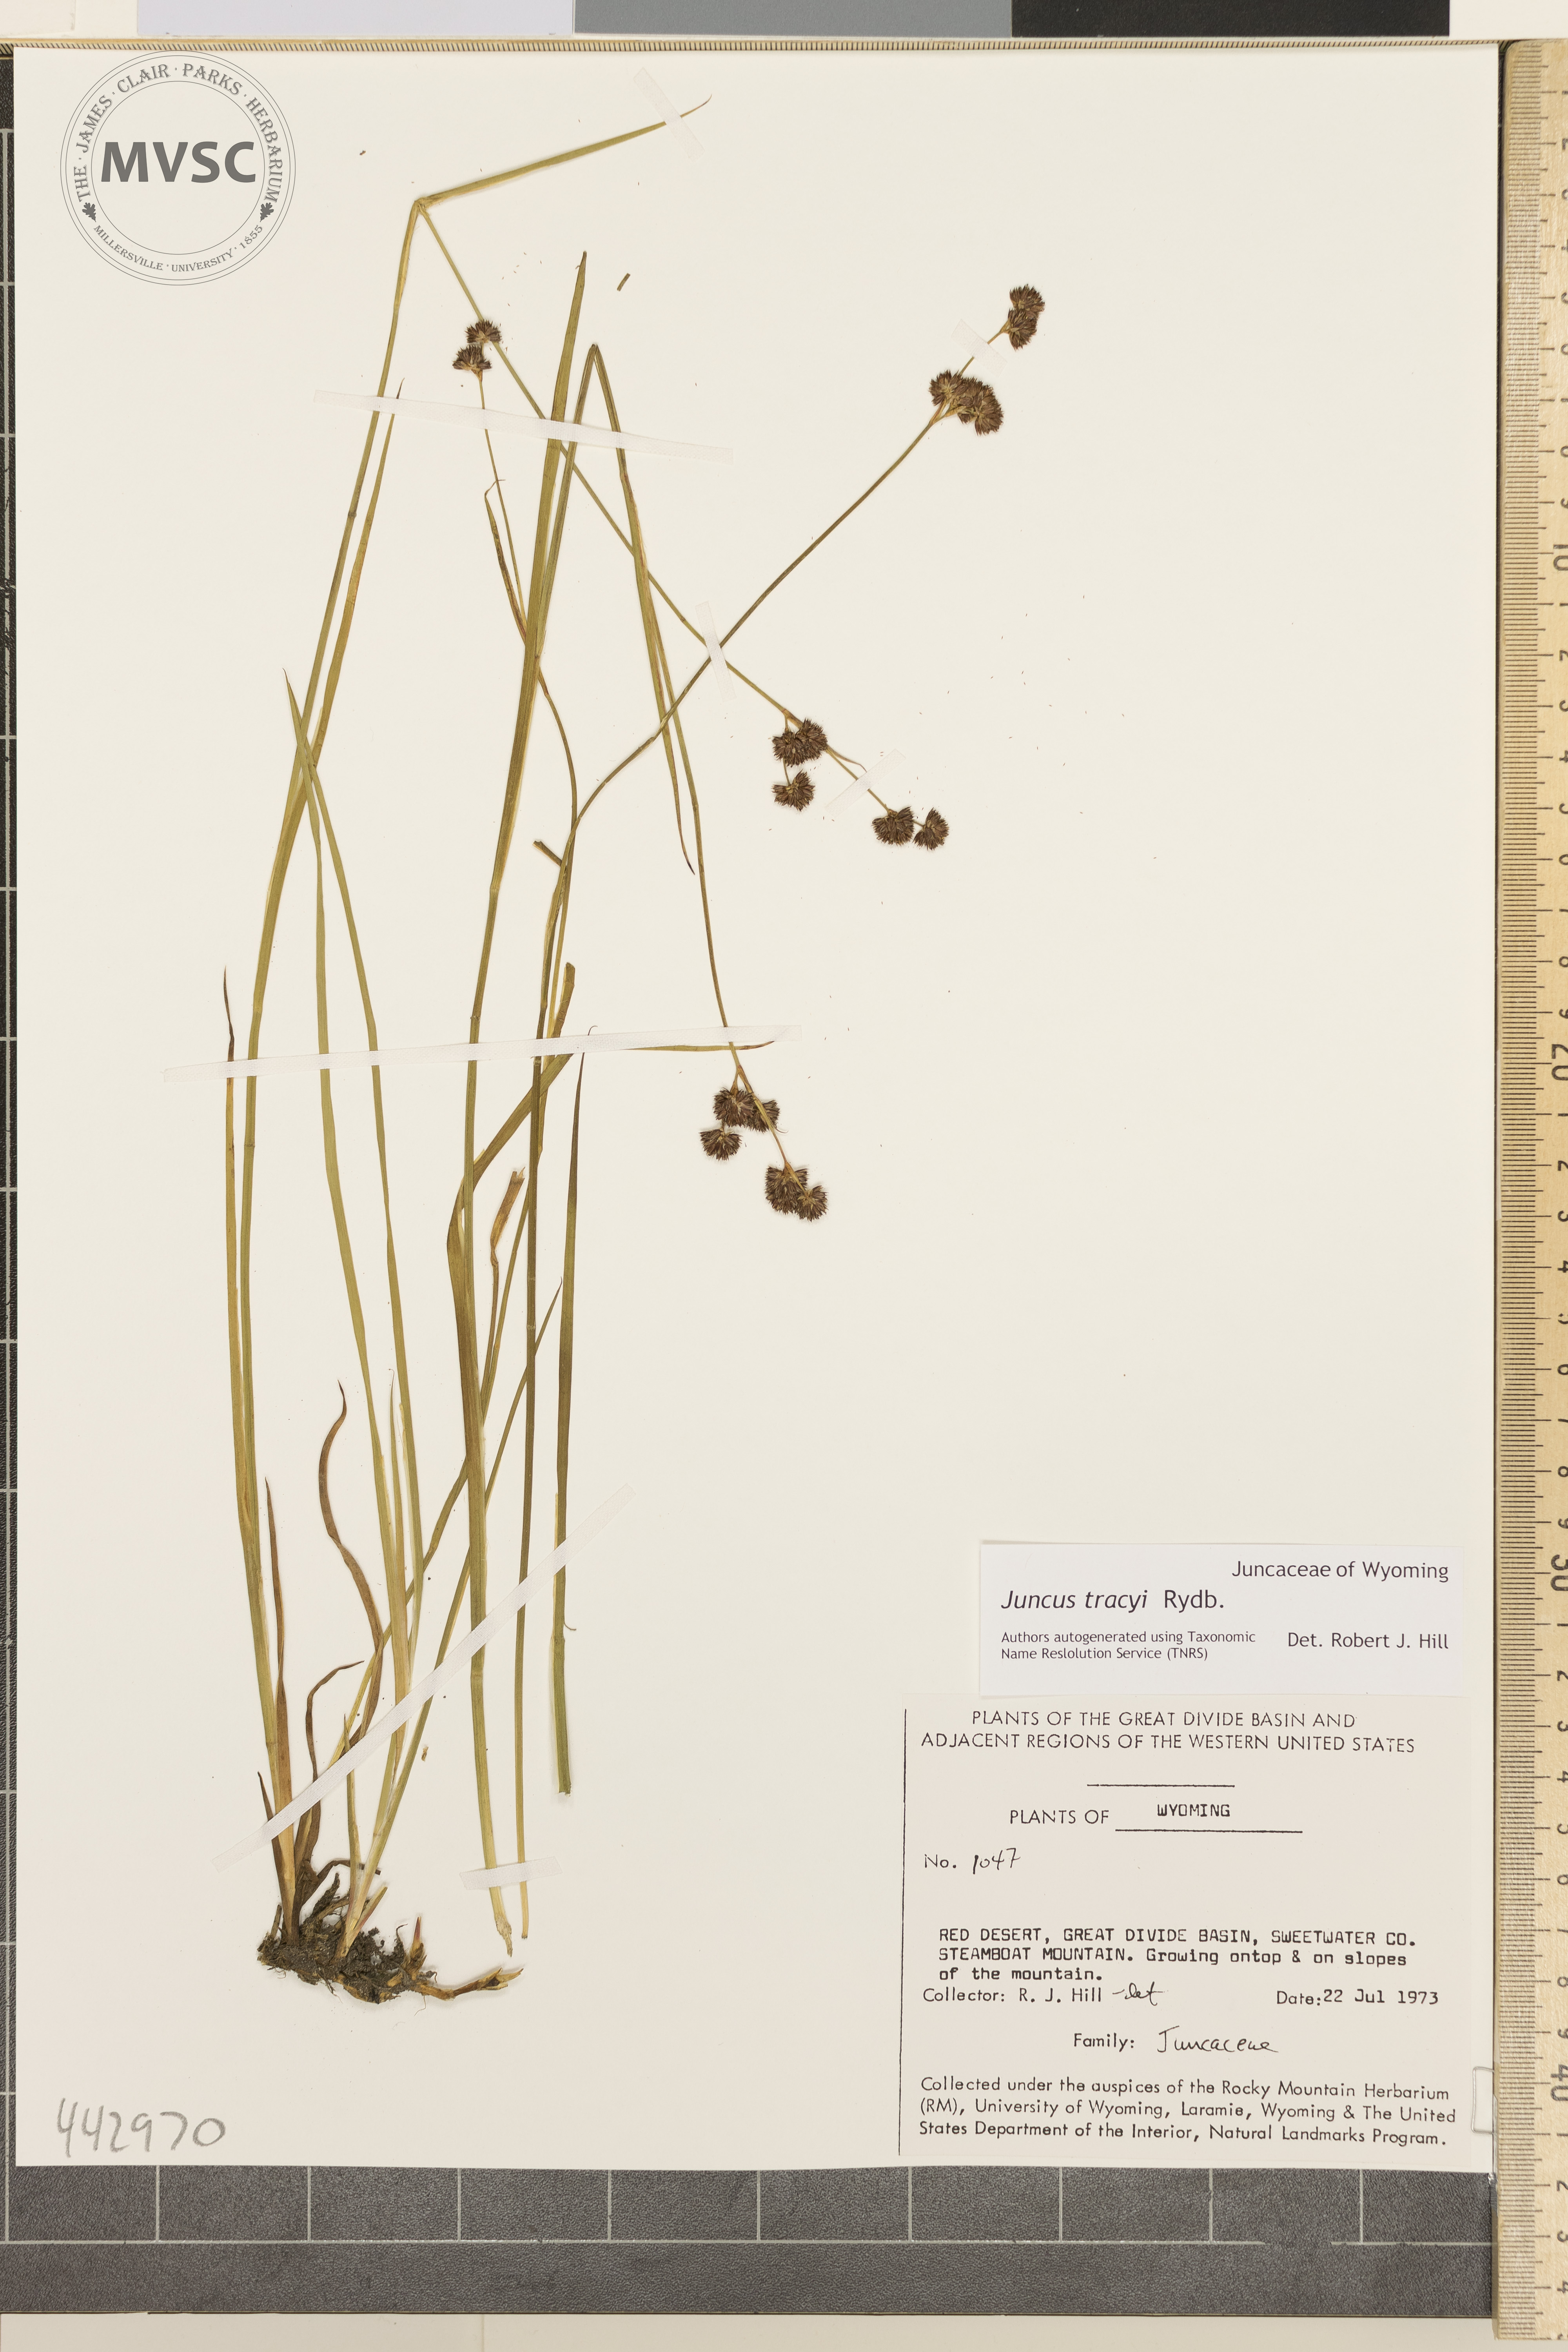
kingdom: Plantae
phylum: Tracheophyta
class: Liliopsida
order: Poales
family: Juncaceae
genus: Juncus
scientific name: Juncus tracyi
